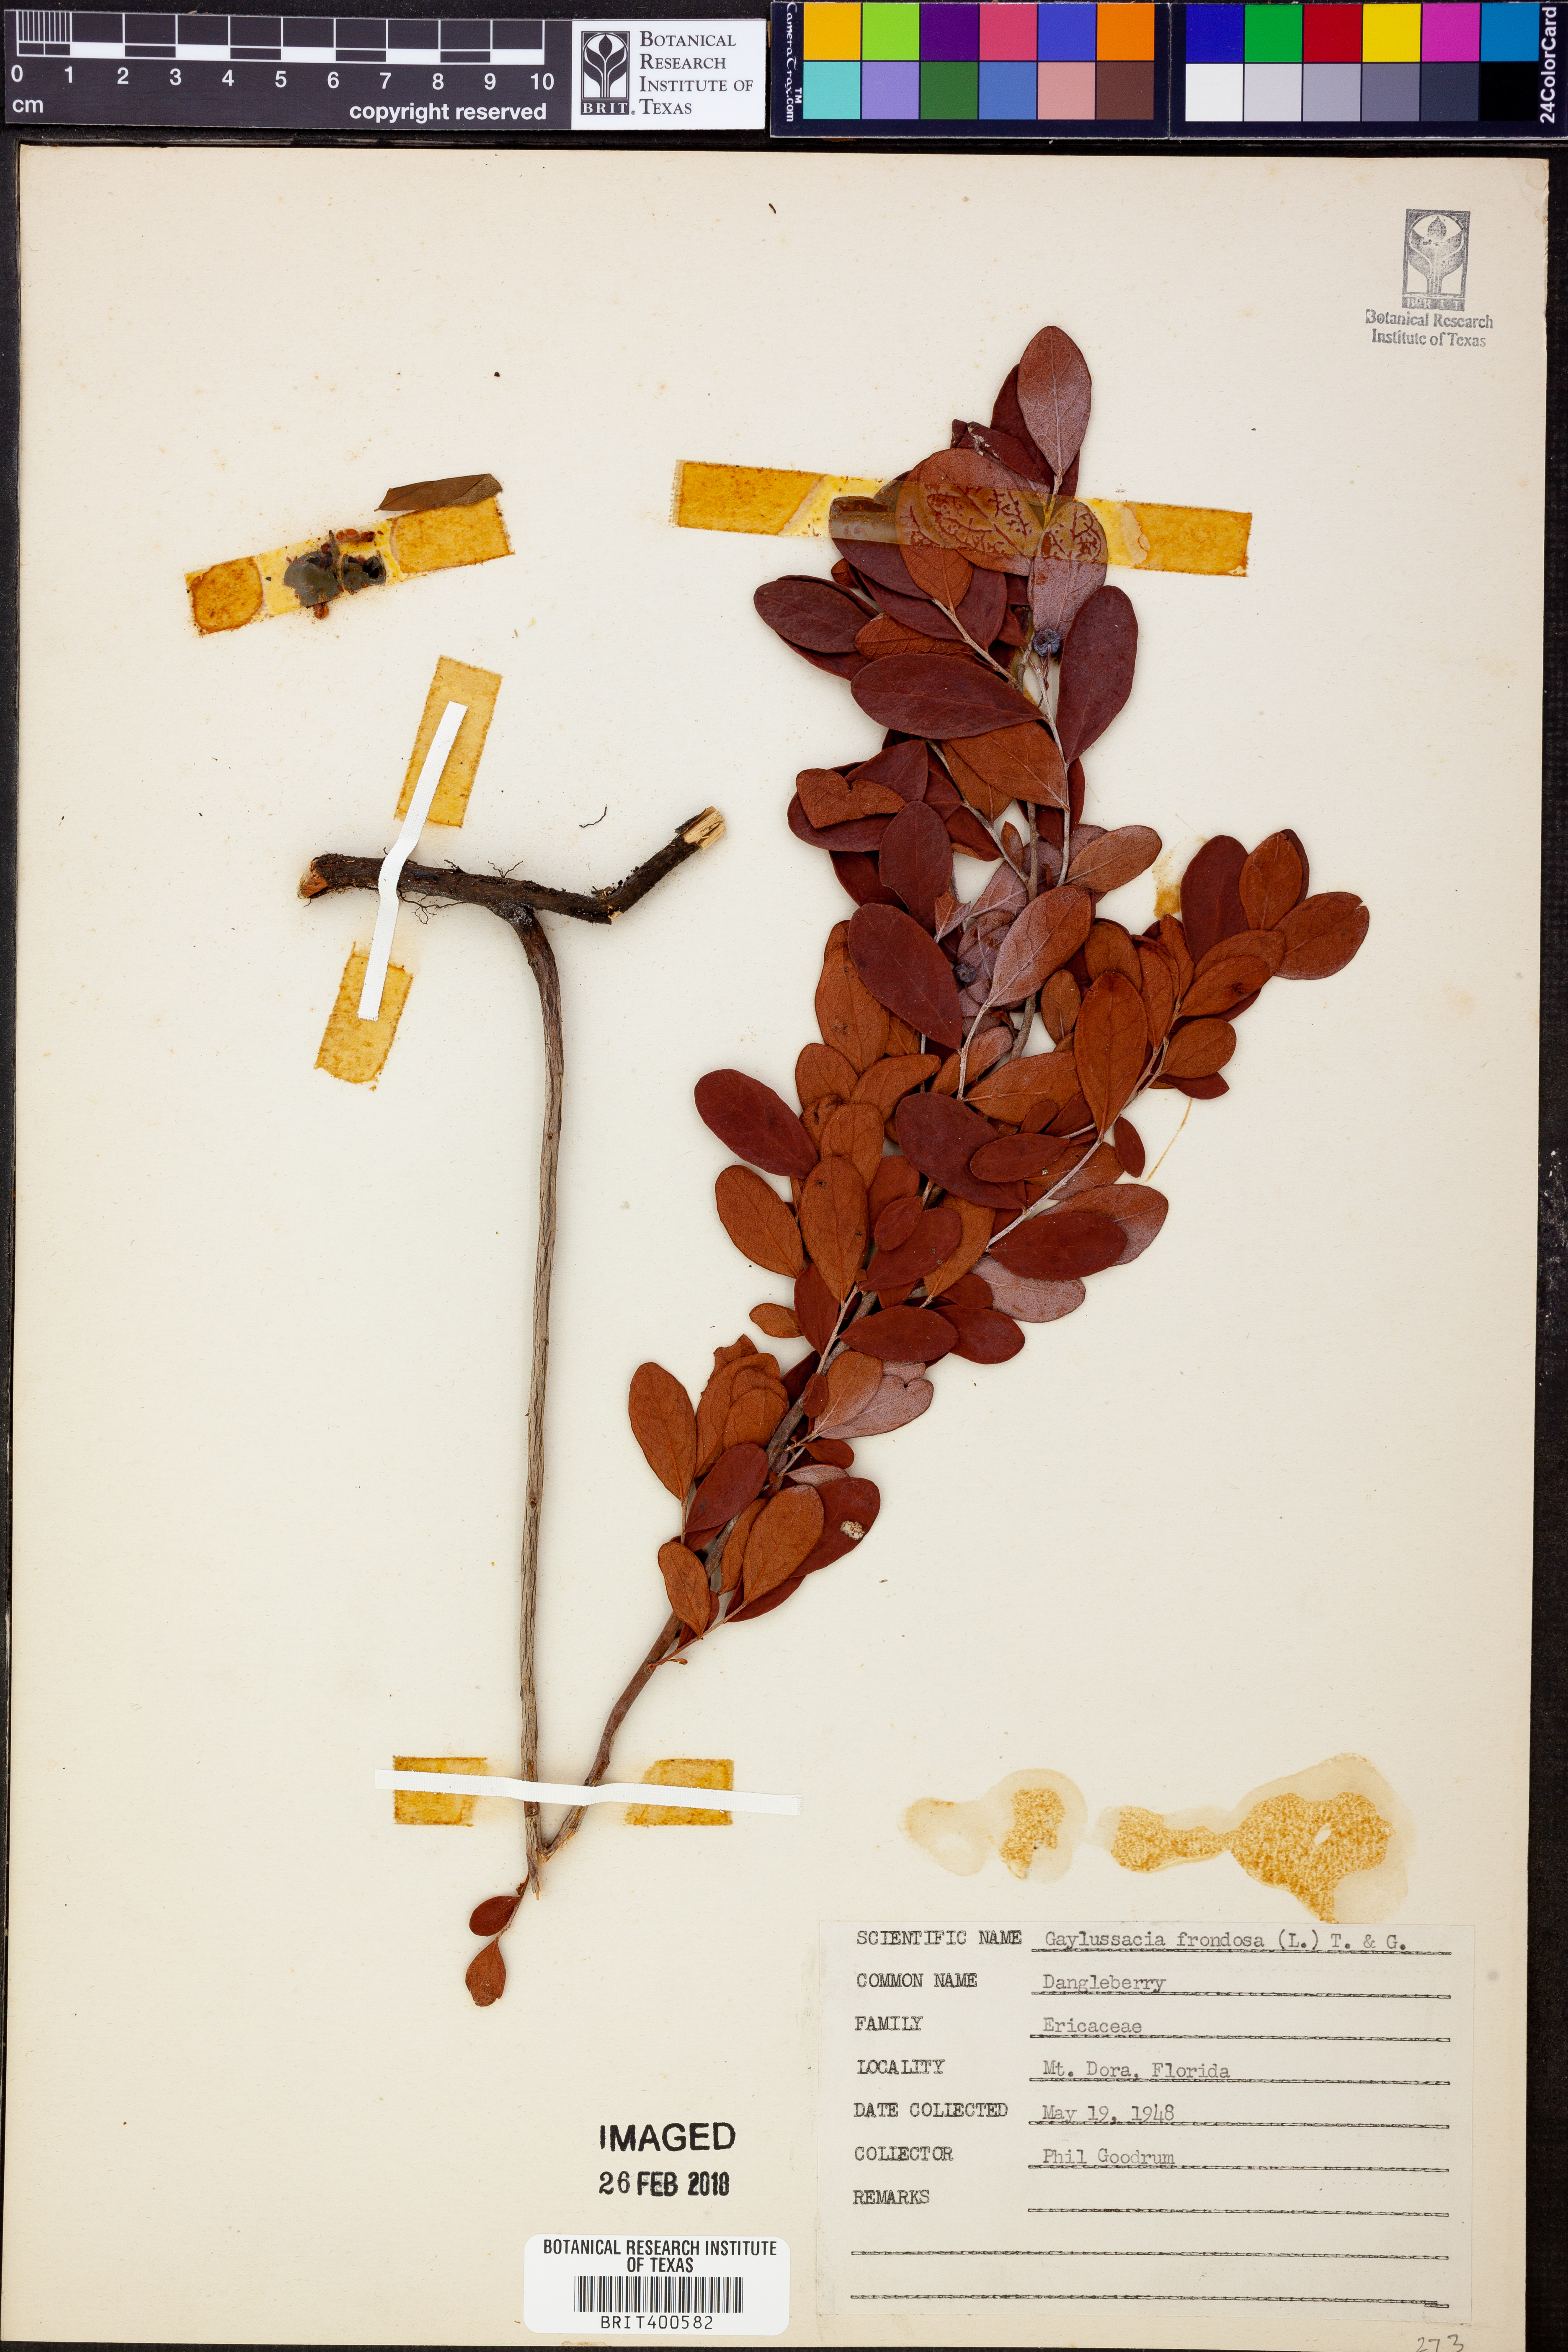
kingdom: Plantae
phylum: Tracheophyta
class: Magnoliopsida
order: Ericales
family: Ericaceae
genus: Gaylussacia
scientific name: Gaylussacia nana
